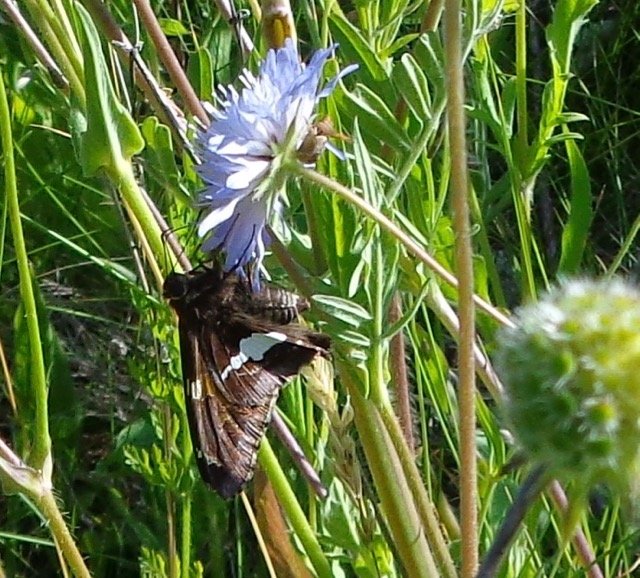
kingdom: Animalia
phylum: Arthropoda
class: Insecta
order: Lepidoptera
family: Hesperiidae
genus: Epargyreus
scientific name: Epargyreus clarus
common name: Silver-spotted Skipper
